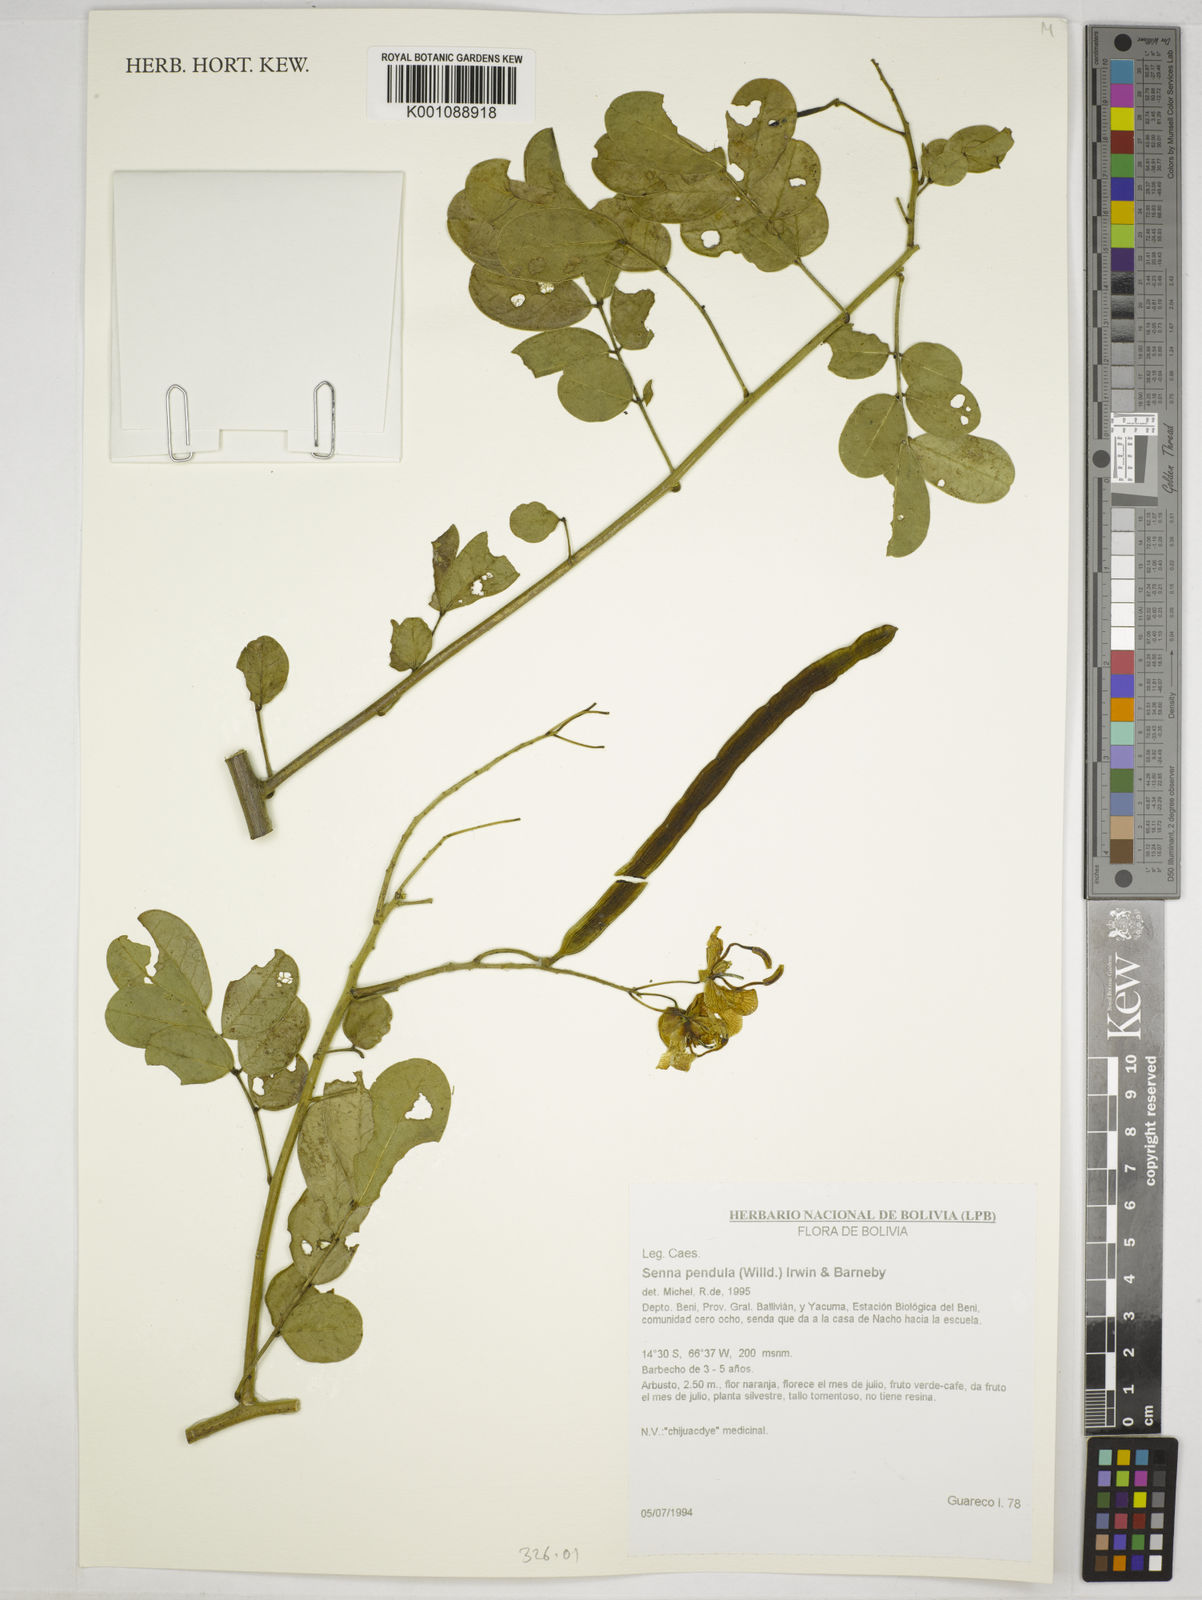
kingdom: Plantae
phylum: Tracheophyta
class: Magnoliopsida
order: Fabales
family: Fabaceae
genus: Senna
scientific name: Senna pendula
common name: Easter cassia
